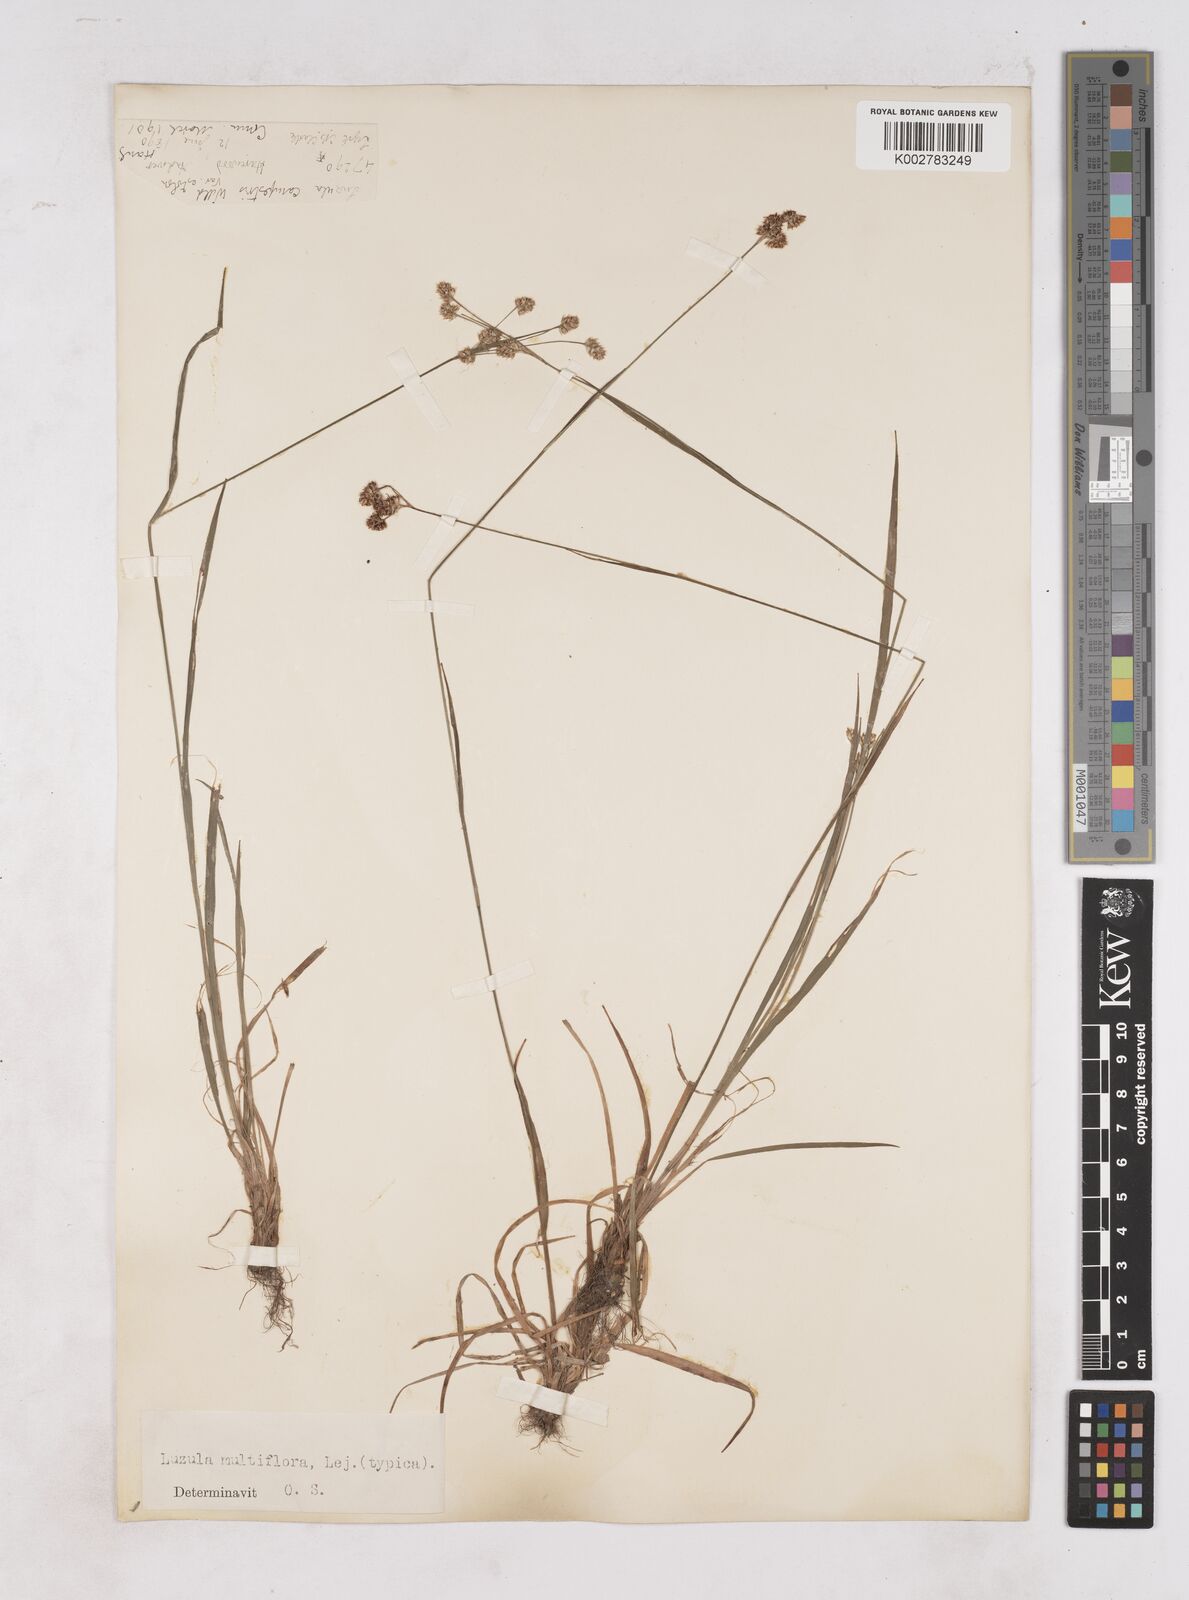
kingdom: Plantae
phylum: Tracheophyta
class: Liliopsida
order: Poales
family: Juncaceae
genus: Luzula
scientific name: Luzula multiflora
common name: Heath wood-rush
